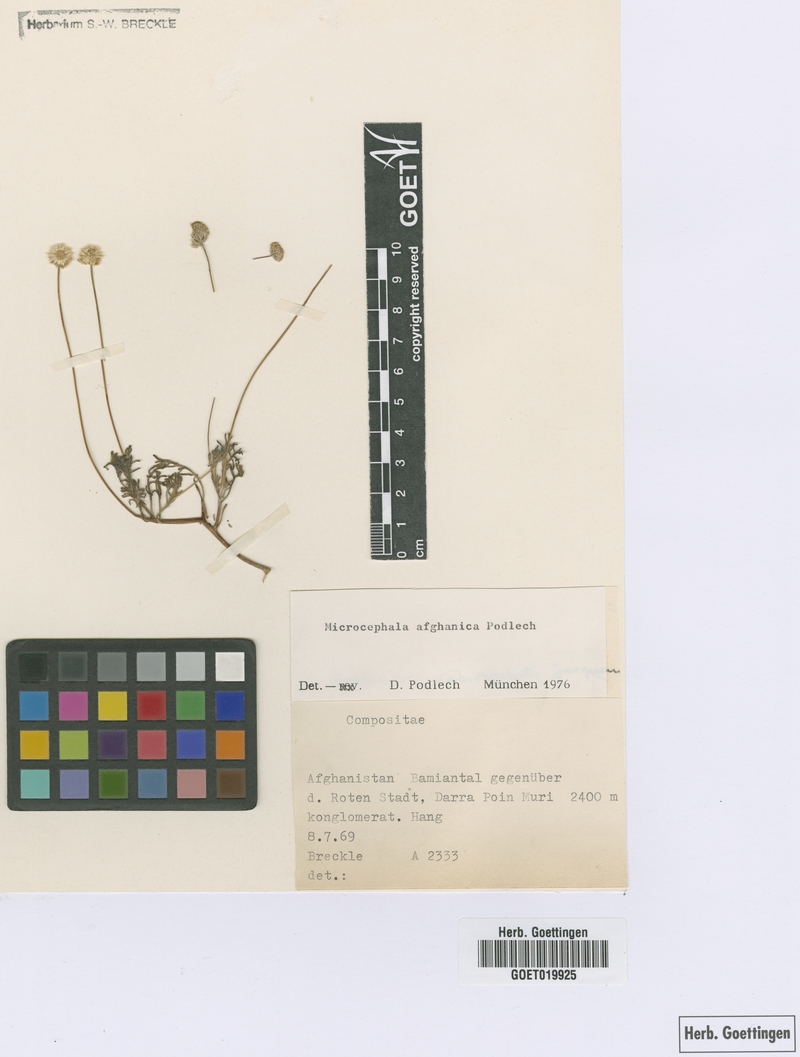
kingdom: Plantae
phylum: Tracheophyta
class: Magnoliopsida
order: Asterales
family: Asteraceae
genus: Microcephala
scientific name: Microcephala afghanica
